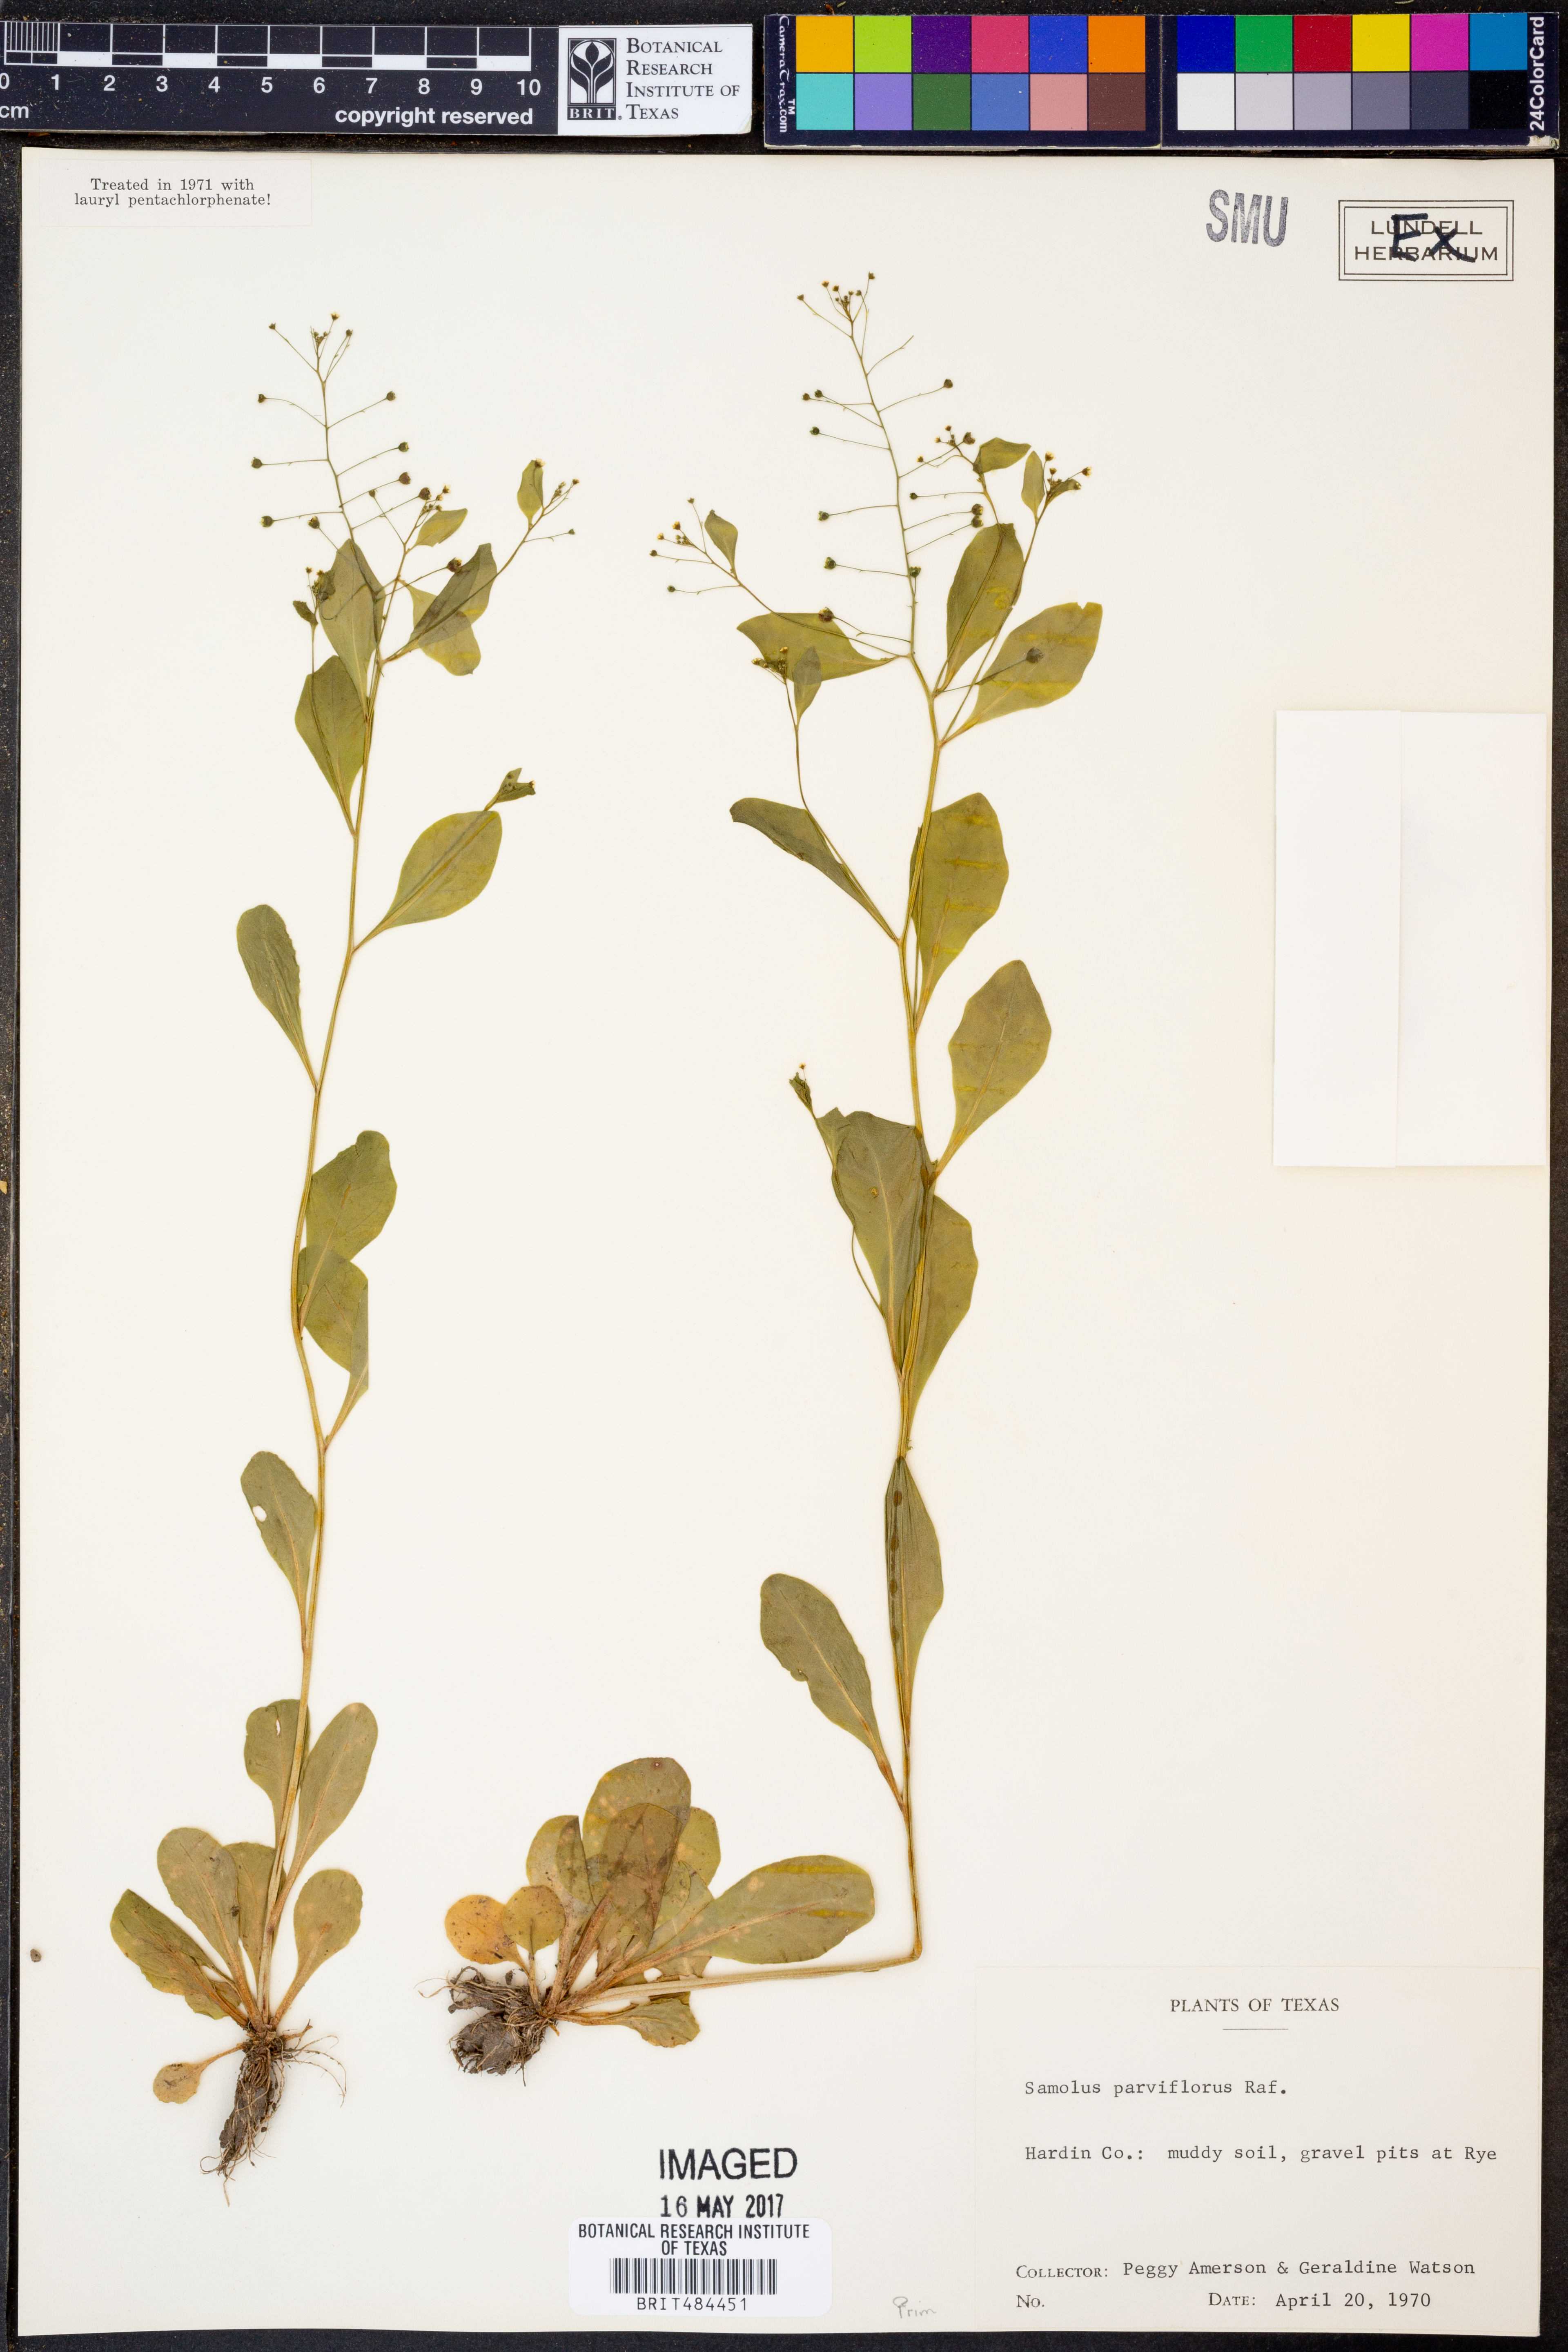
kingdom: Plantae
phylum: Tracheophyta
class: Magnoliopsida
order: Ericales
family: Primulaceae
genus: Samolus
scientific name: Samolus parviflorus
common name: False water pimpernel
